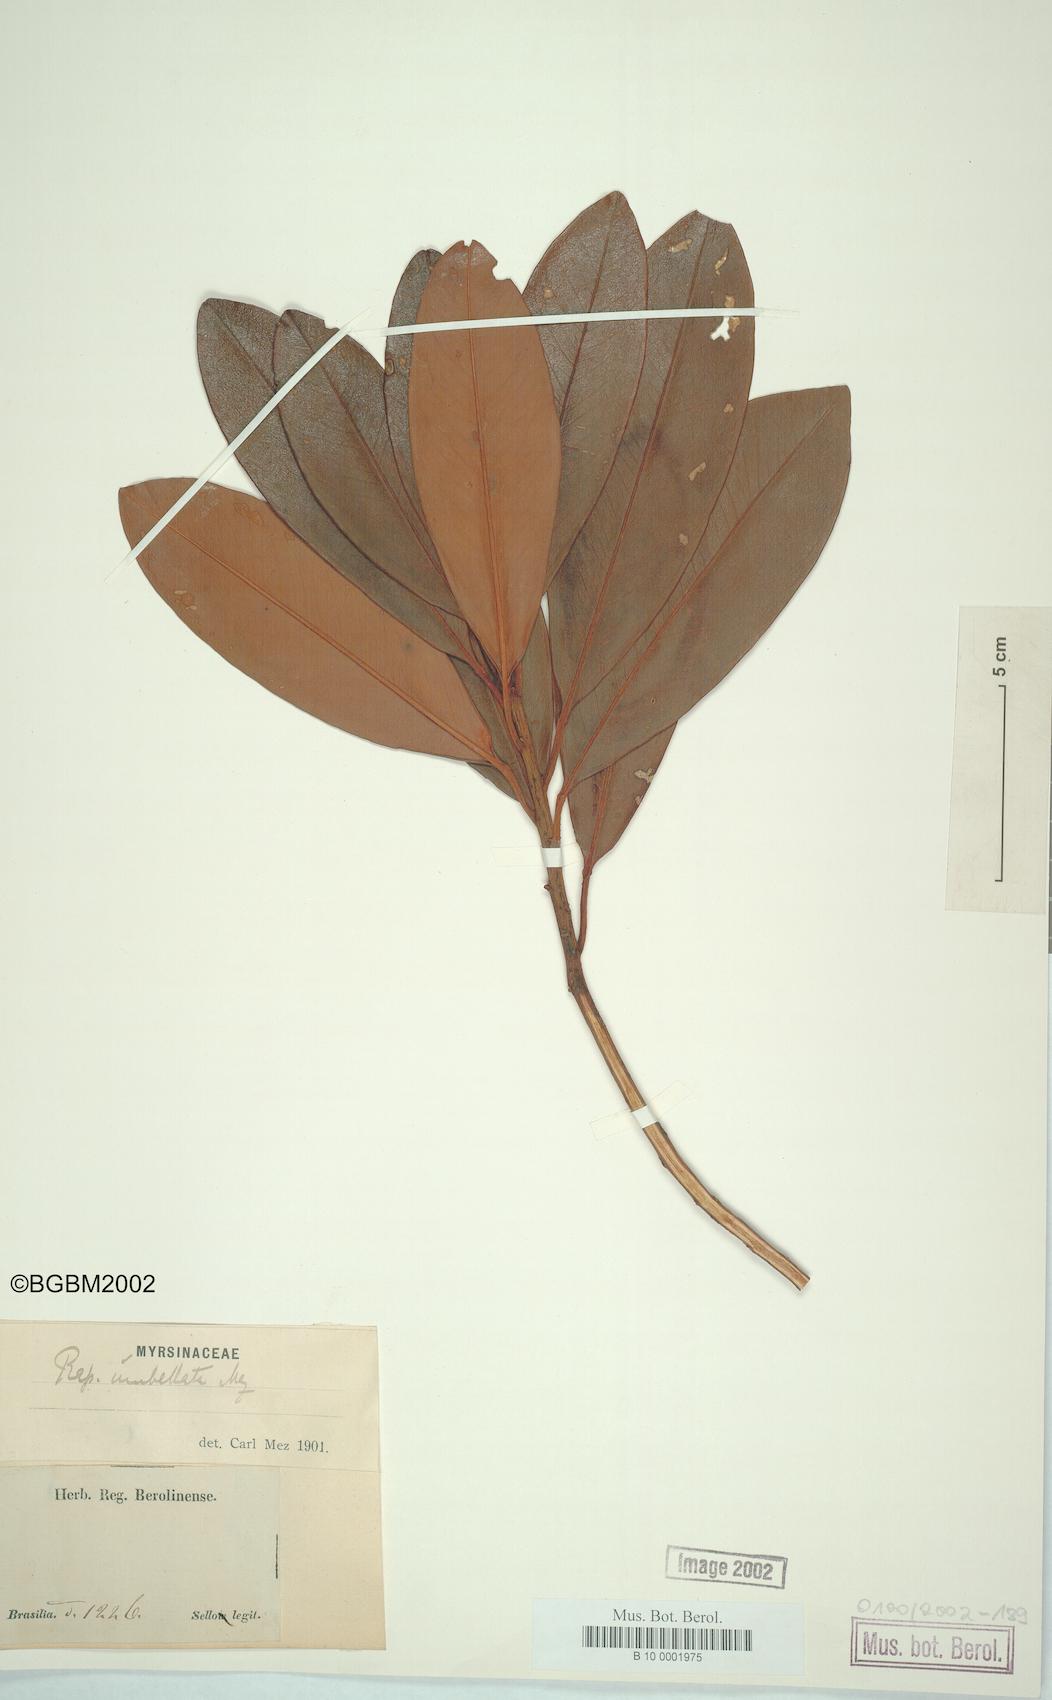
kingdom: Plantae
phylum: Tracheophyta
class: Magnoliopsida
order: Ericales
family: Primulaceae
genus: Myrsine
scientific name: Myrsine umbellata
